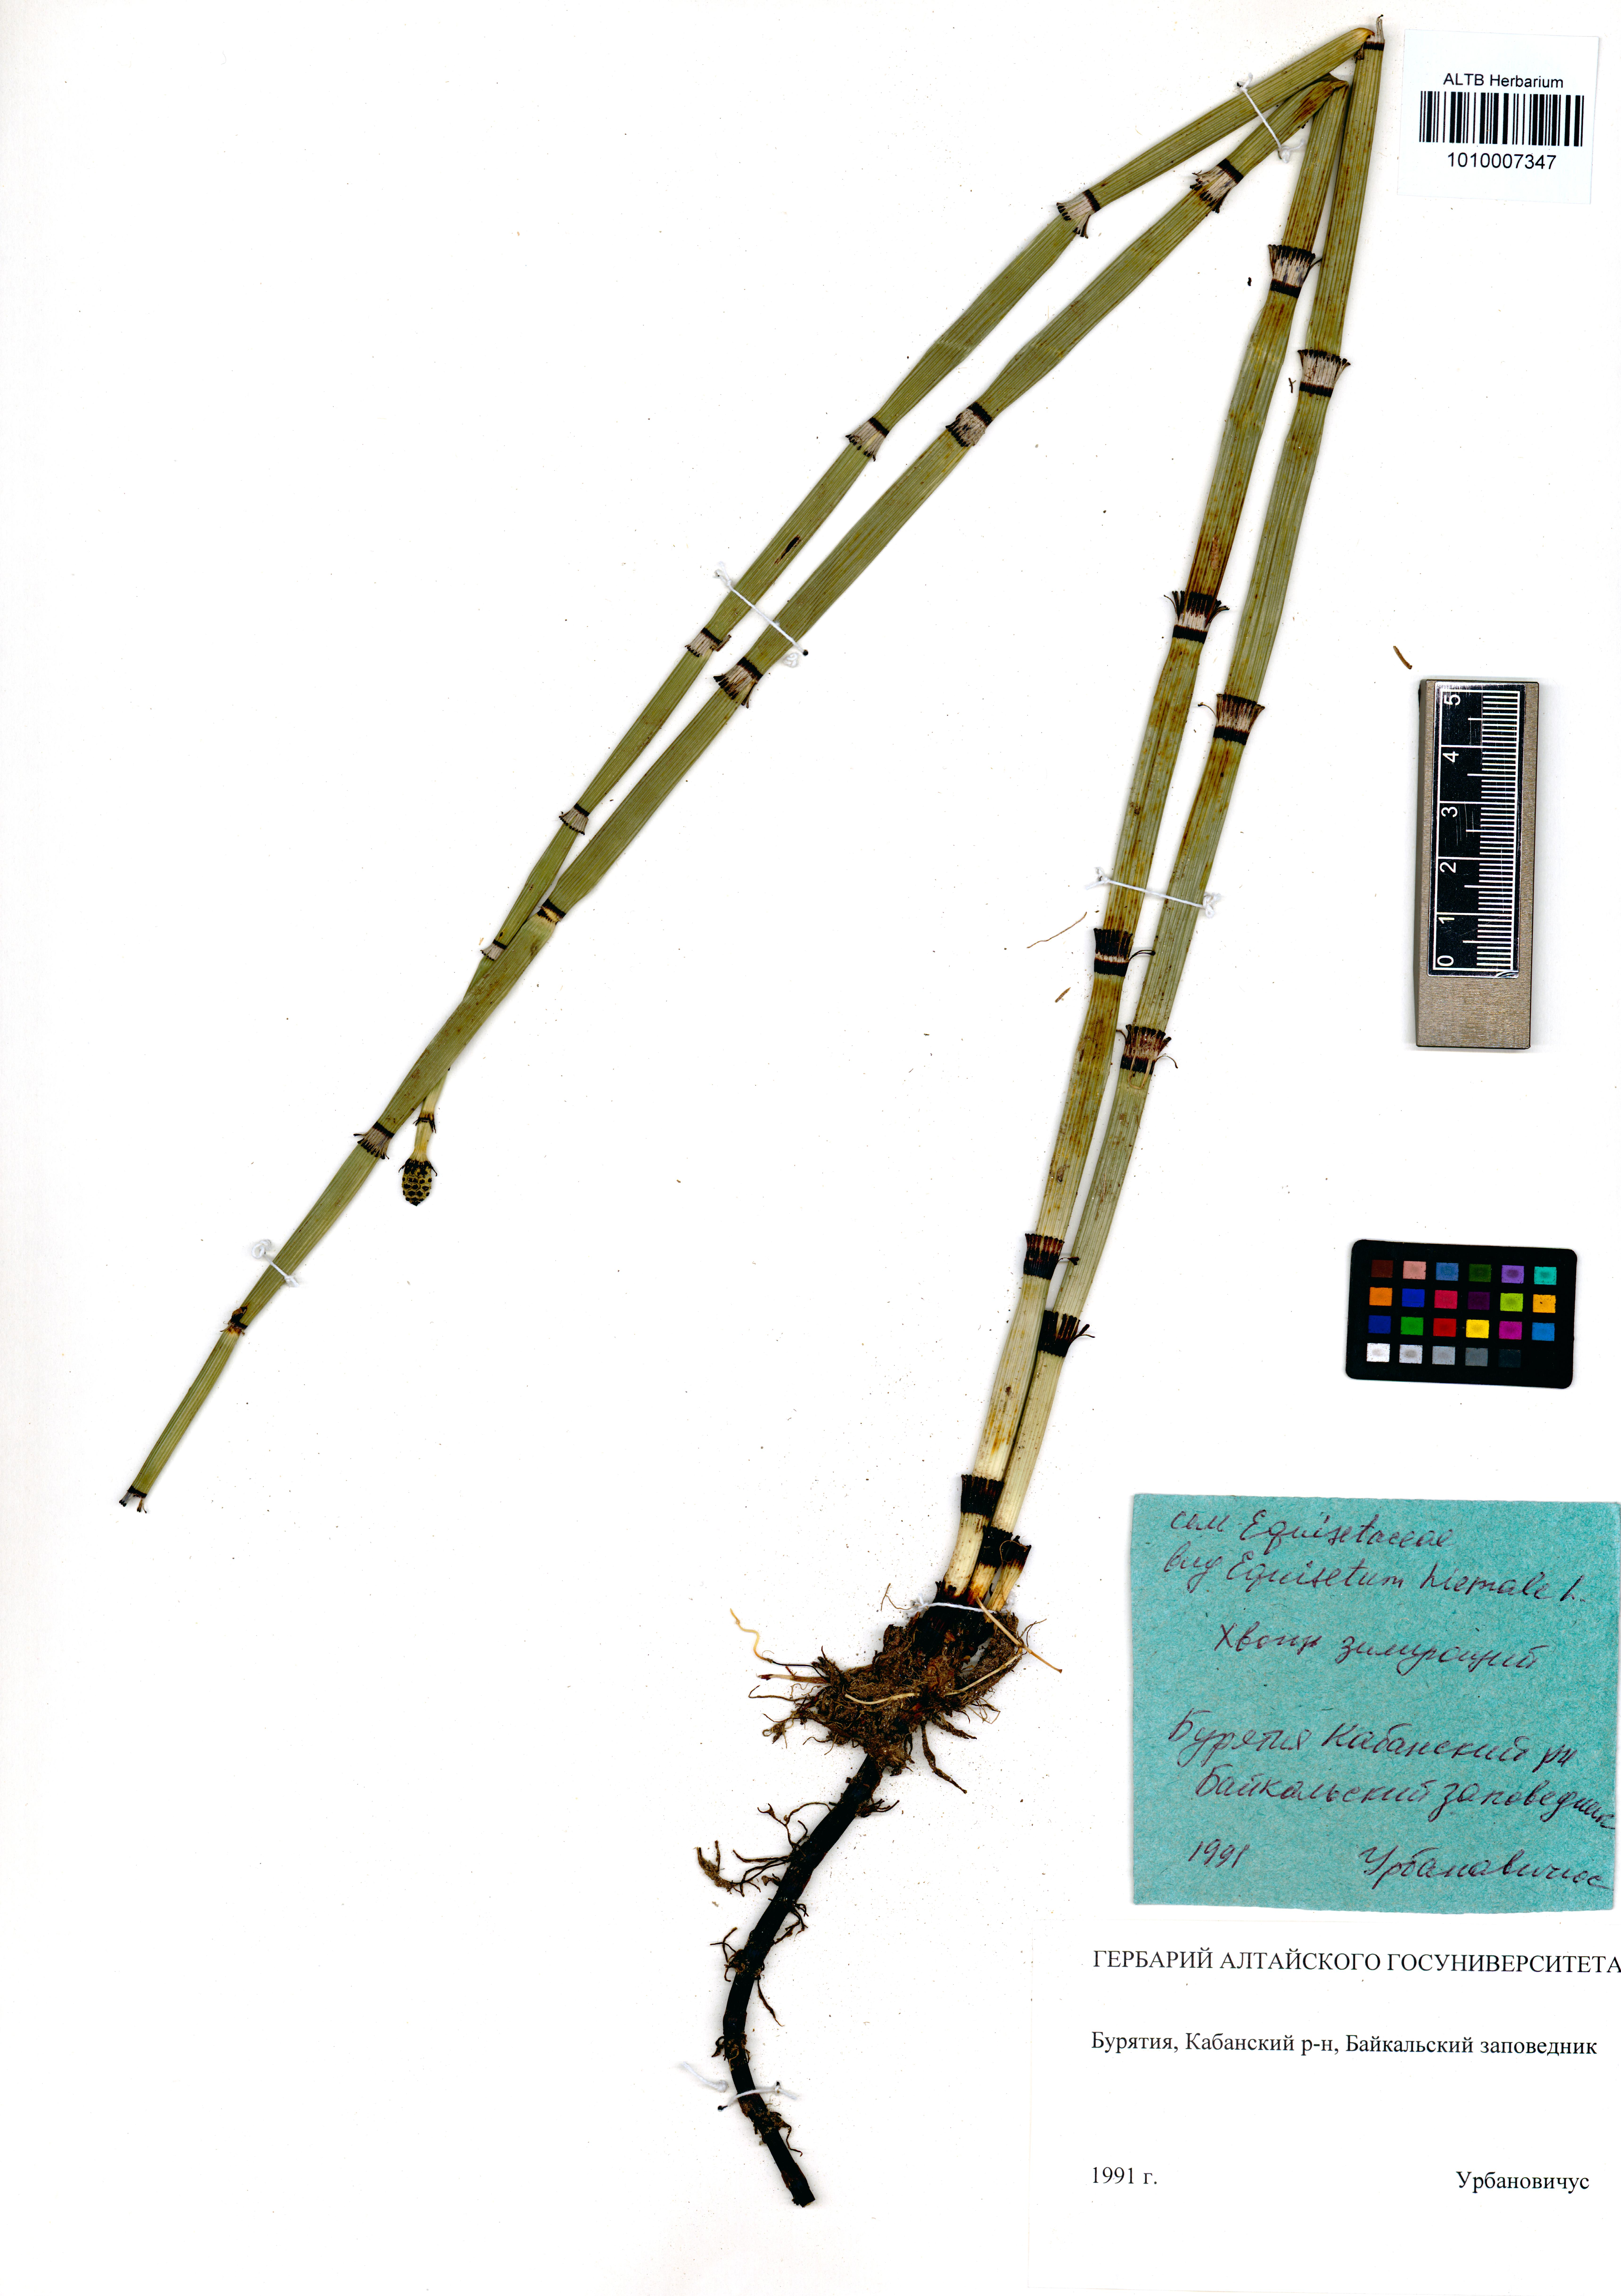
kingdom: Plantae
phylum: Tracheophyta
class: Polypodiopsida
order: Equisetales
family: Equisetaceae
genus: Equisetum
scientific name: Equisetum hyemale
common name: Rough horsetail
